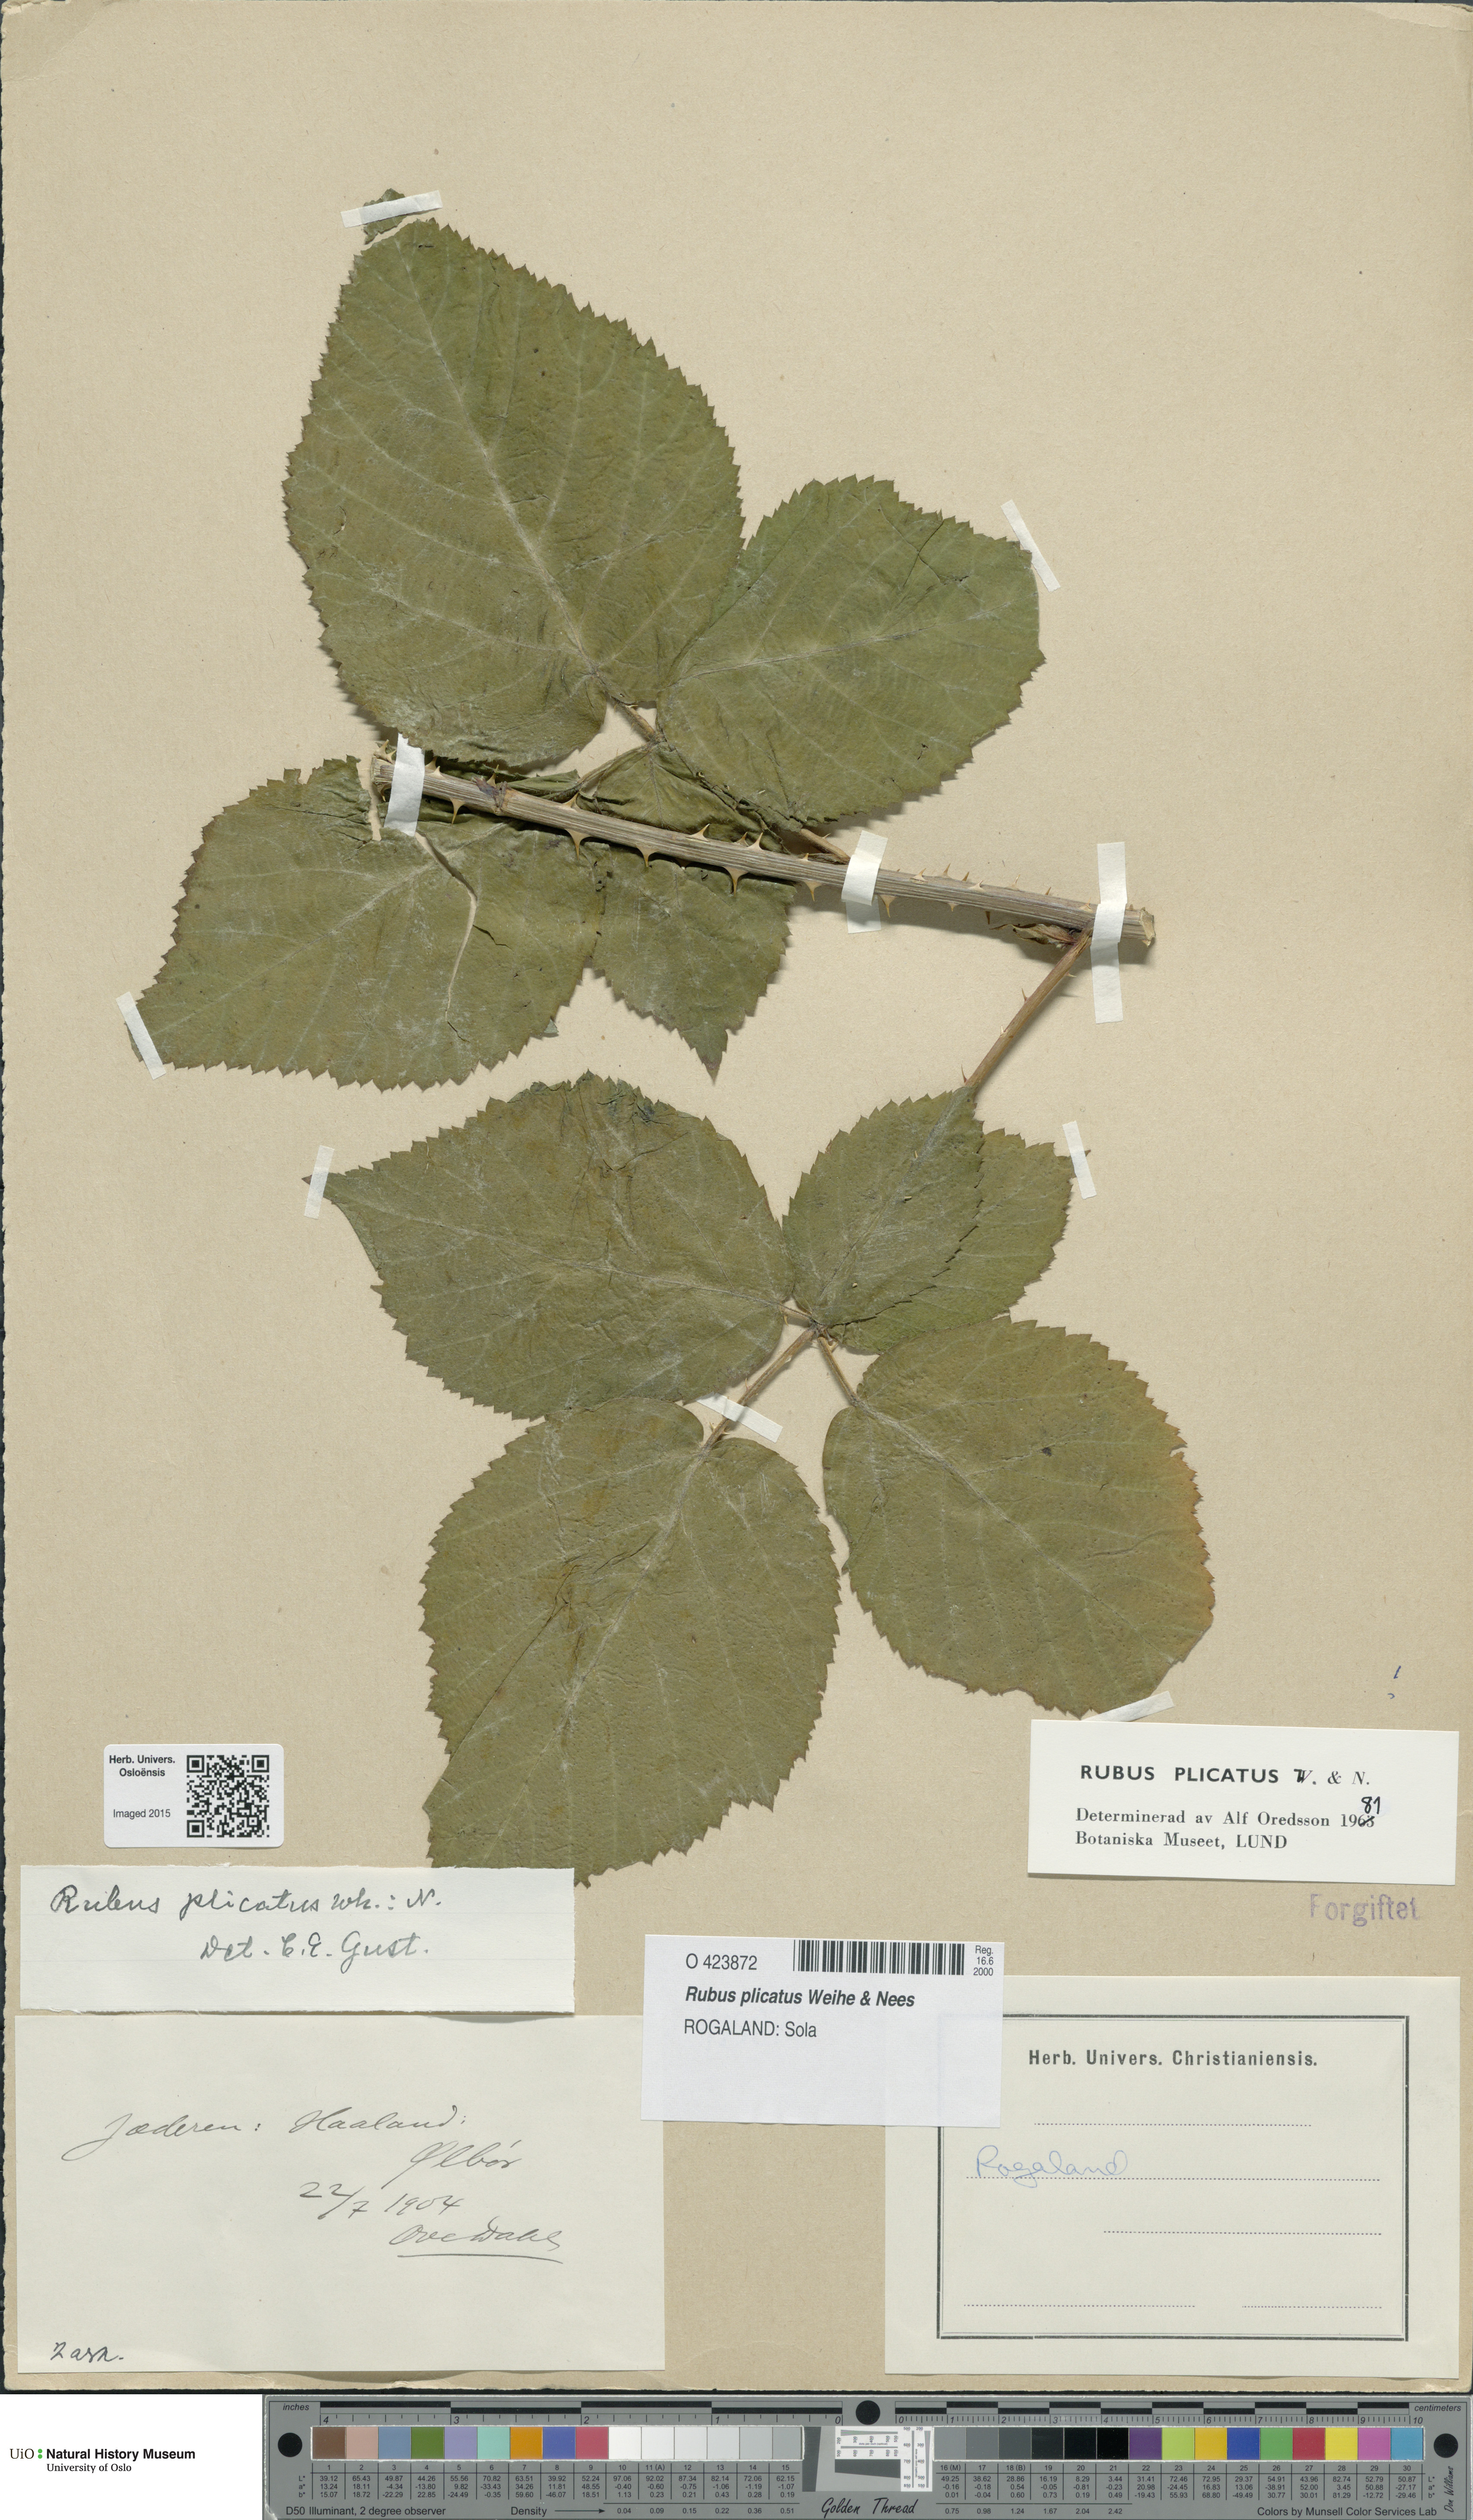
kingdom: Plantae
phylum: Tracheophyta
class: Magnoliopsida
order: Rosales
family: Rosaceae
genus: Rubus
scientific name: Rubus fruticosus
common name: Blackberry, bramble
